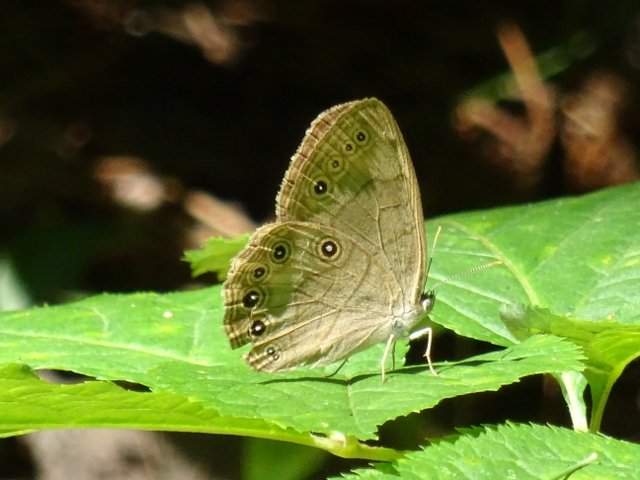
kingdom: Animalia
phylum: Arthropoda
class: Insecta
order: Lepidoptera
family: Nymphalidae
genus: Lethe
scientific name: Lethe eurydice
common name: Appalachian Eyed Brown
